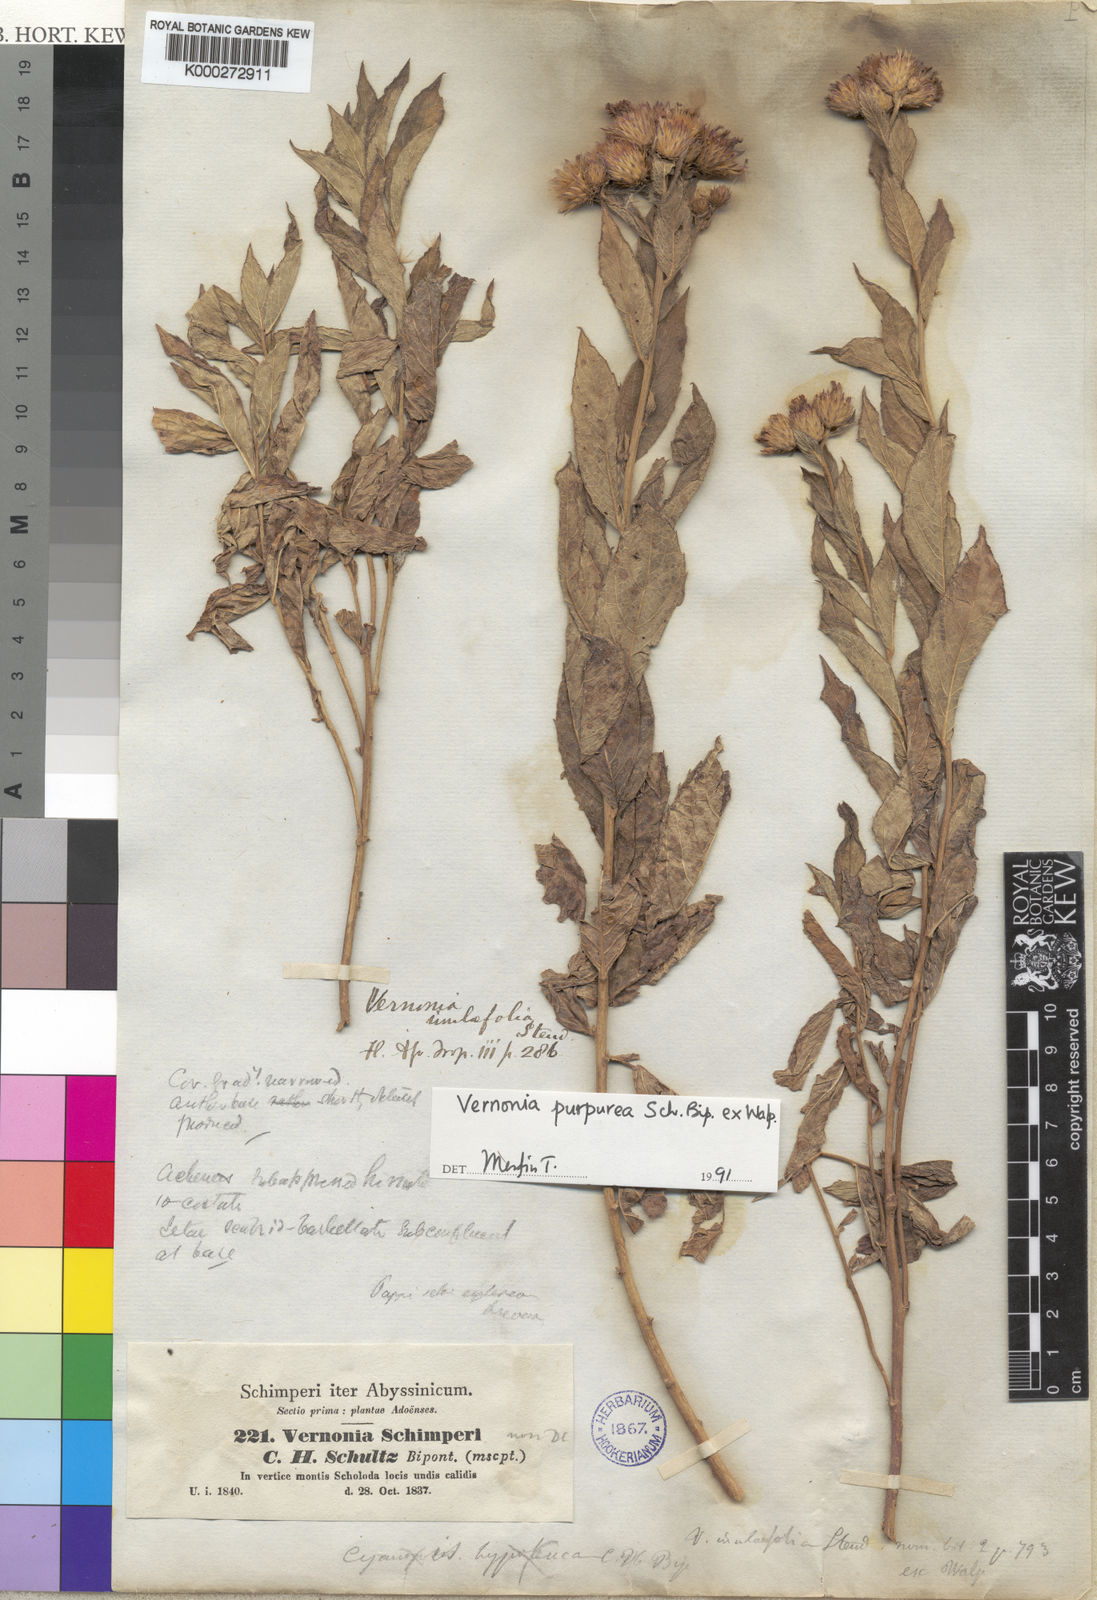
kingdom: Plantae
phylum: Tracheophyta
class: Magnoliopsida
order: Asterales
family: Asteraceae
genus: Nothovernonia
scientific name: Nothovernonia purpurea
